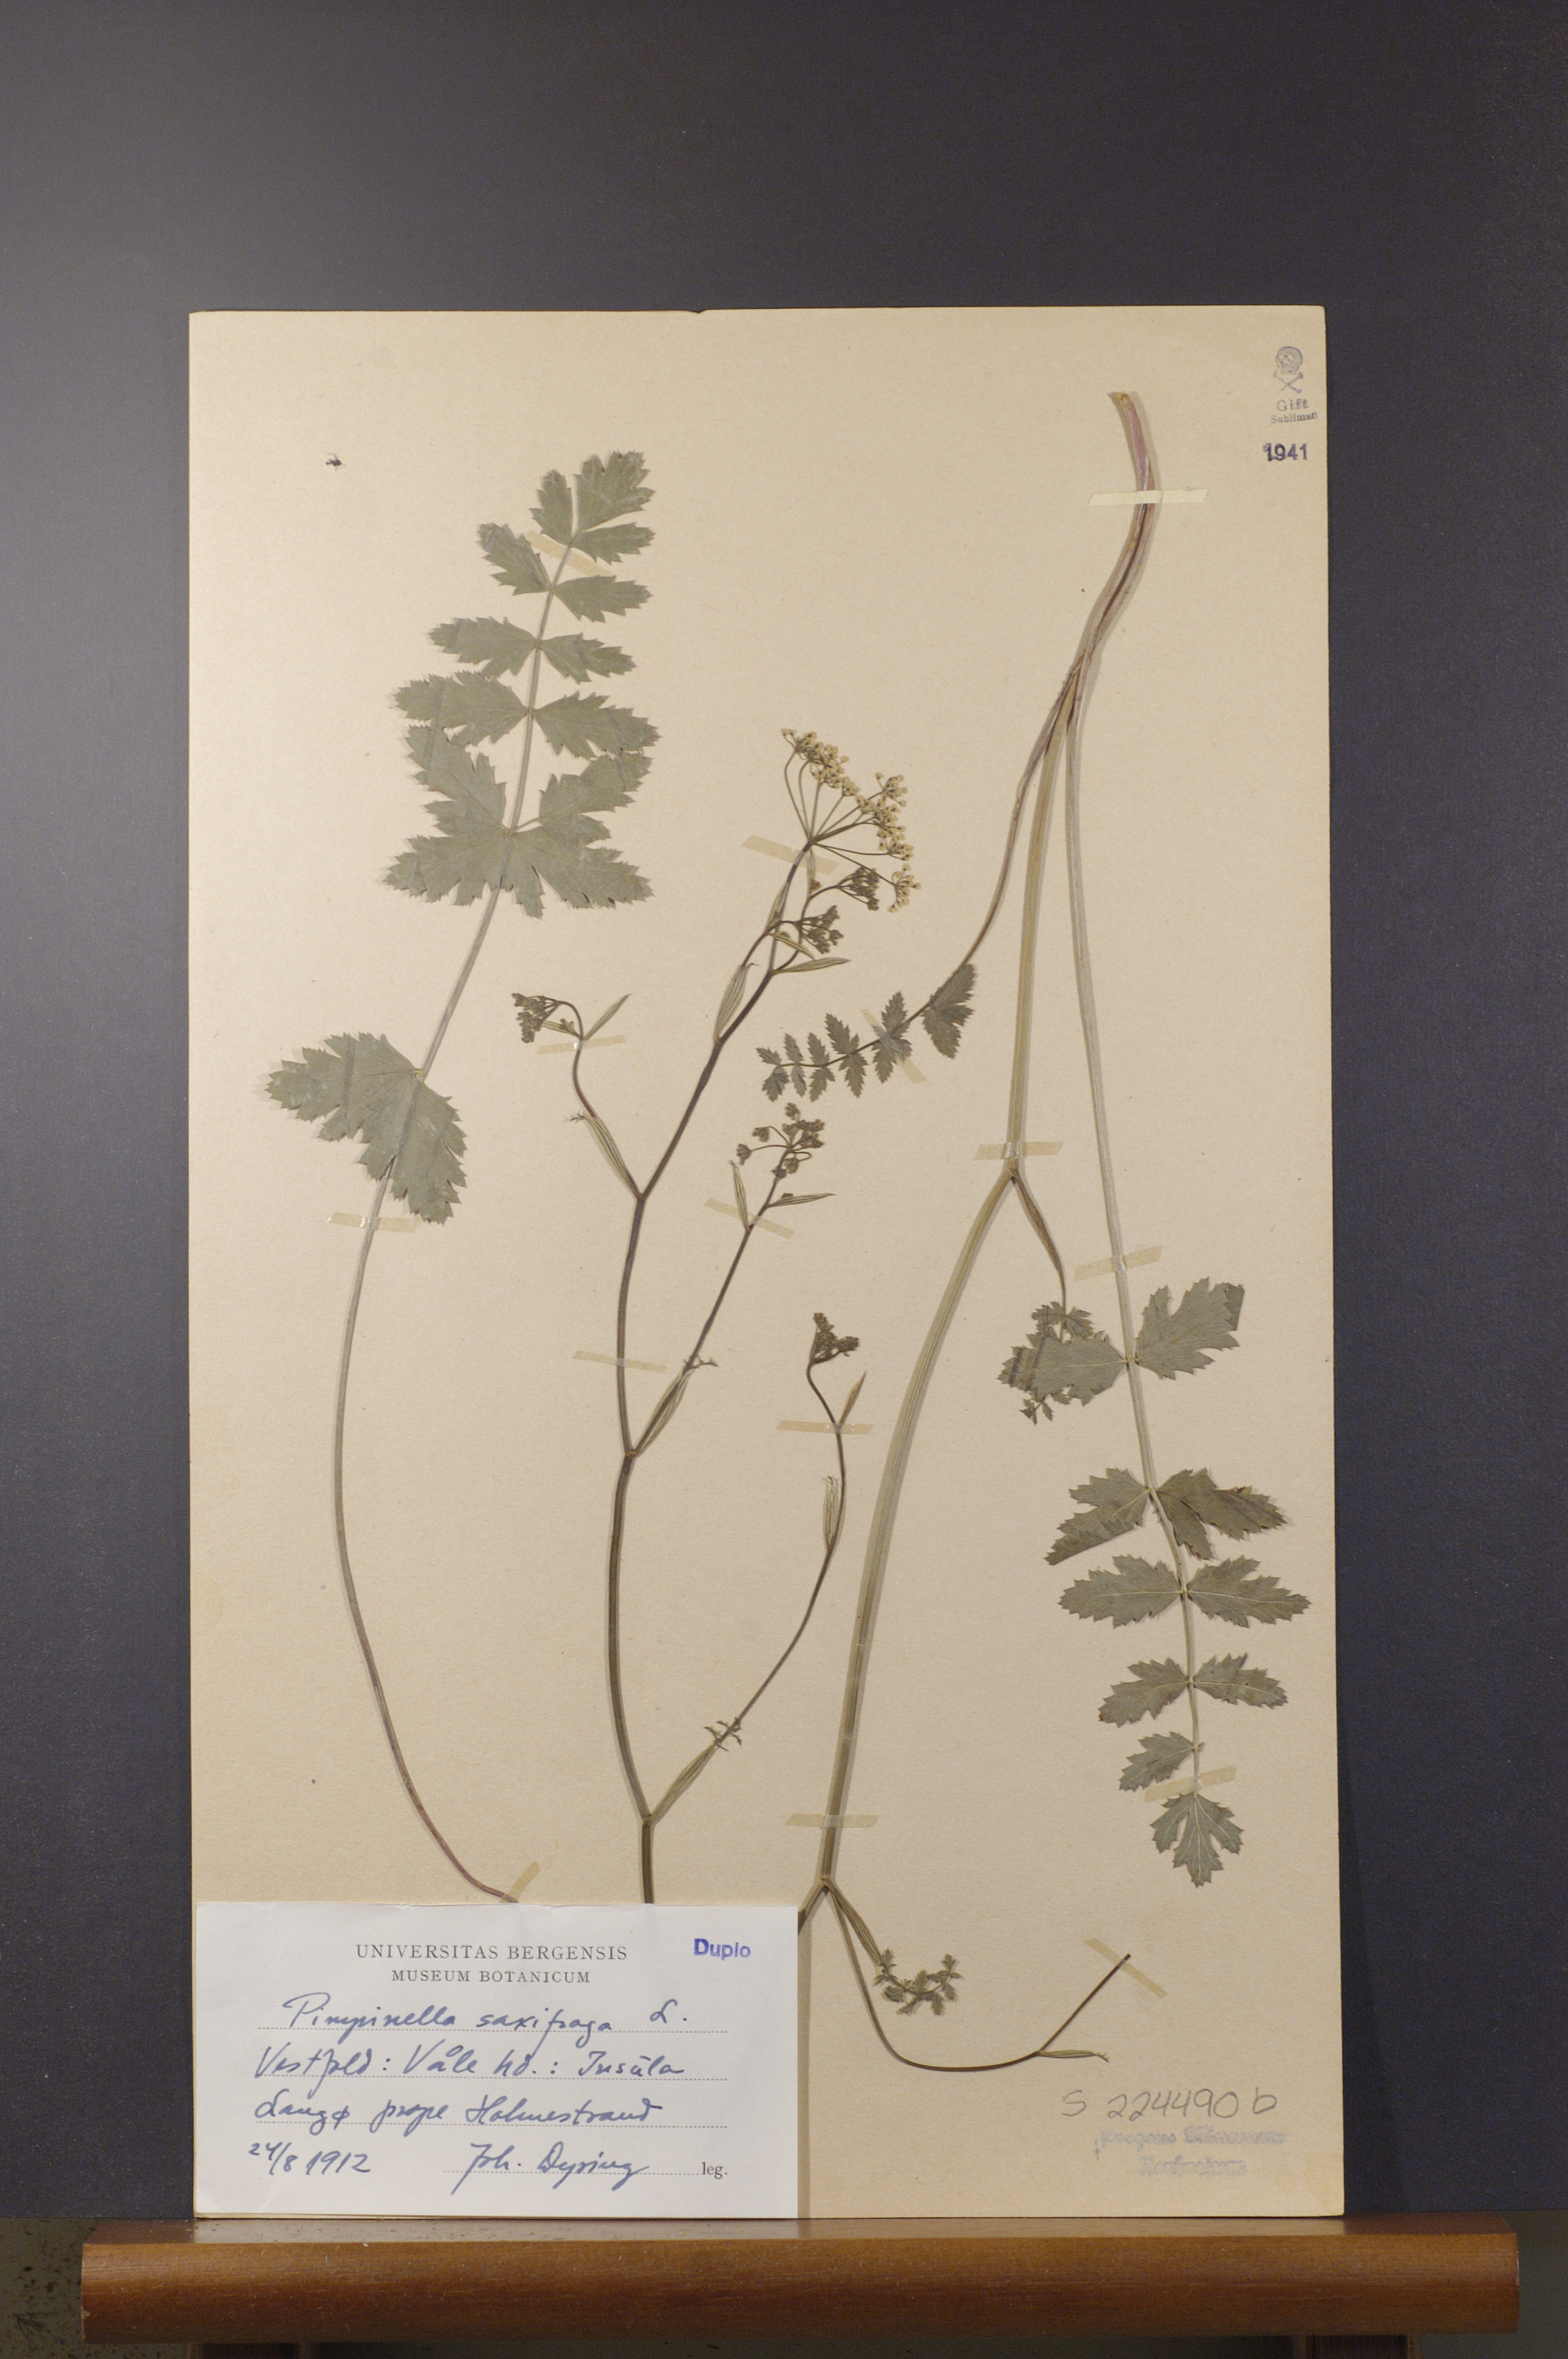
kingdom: Plantae
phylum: Tracheophyta
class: Magnoliopsida
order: Apiales
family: Apiaceae
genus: Pimpinella
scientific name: Pimpinella saxifraga
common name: Burnet-saxifrage
